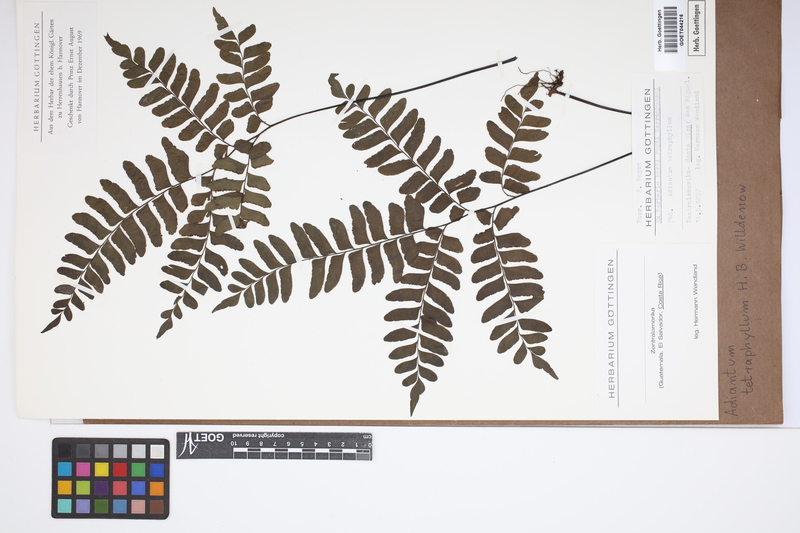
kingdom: Plantae
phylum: Tracheophyta
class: Polypodiopsida
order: Polypodiales
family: Pteridaceae
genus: Adiantum
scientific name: Adiantum tetraphyllum
